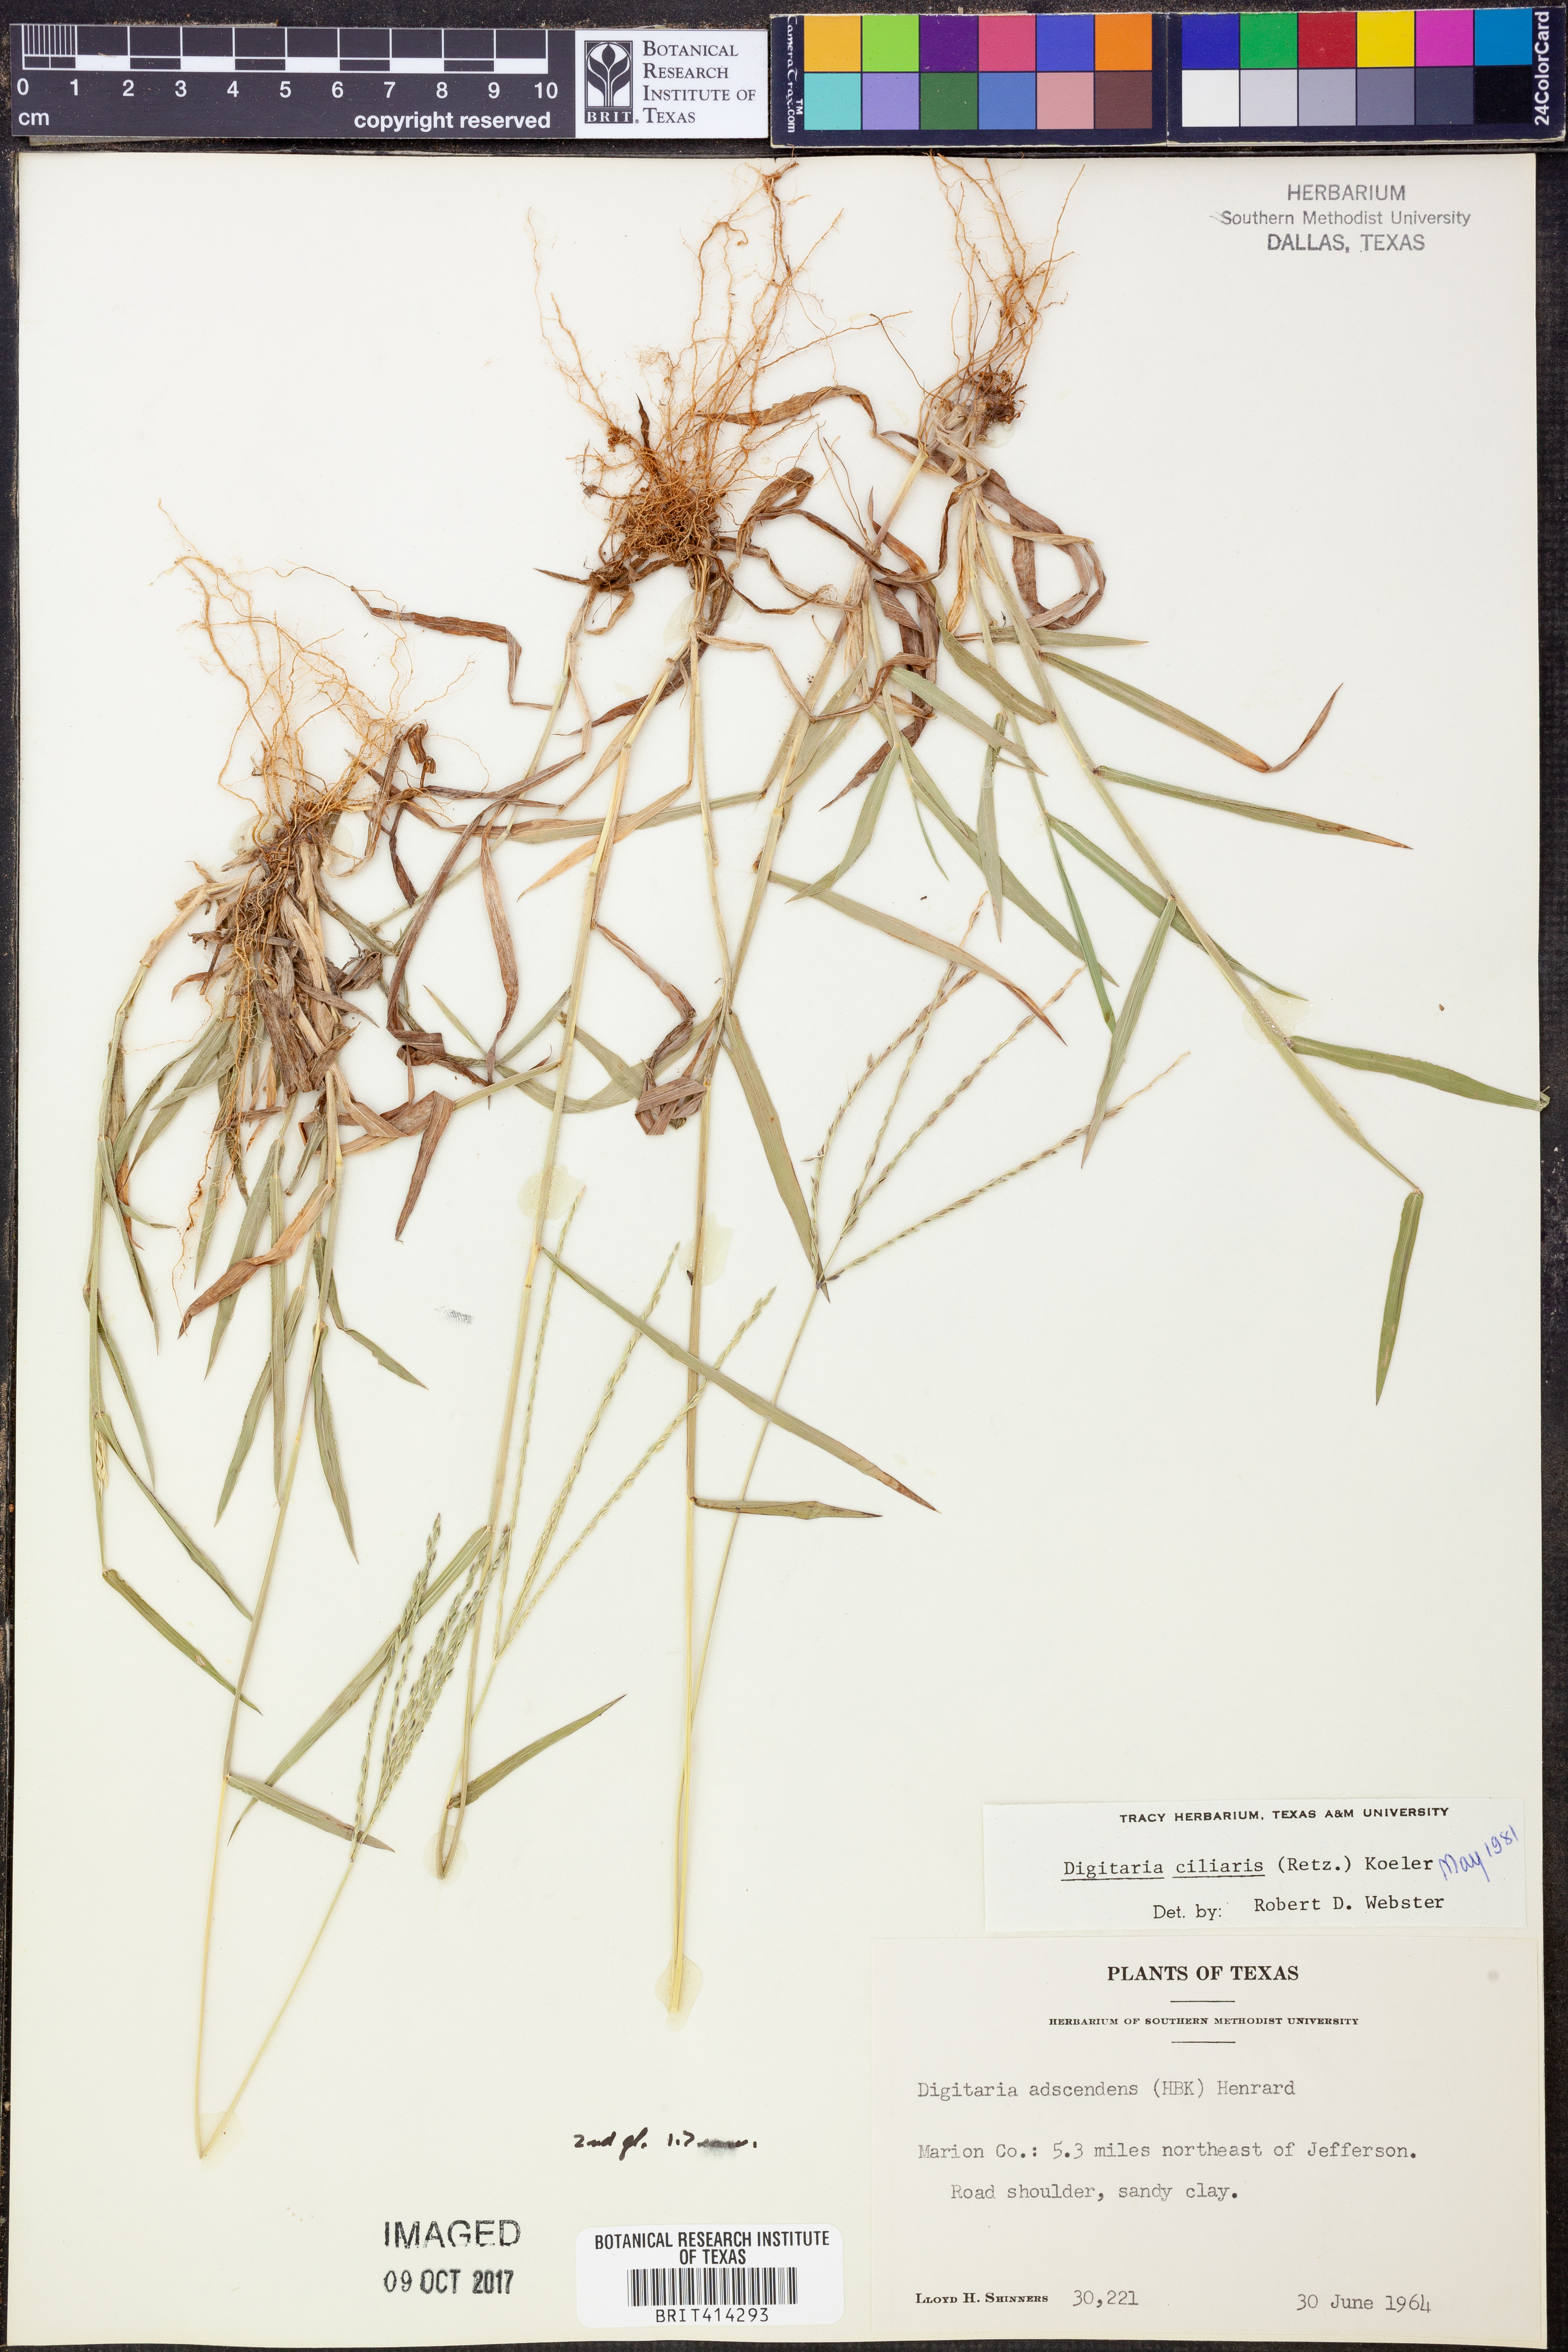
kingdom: Plantae
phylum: Tracheophyta
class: Liliopsida
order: Poales
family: Poaceae
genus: Digitaria
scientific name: Digitaria ciliaris
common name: Tropical finger-grass
